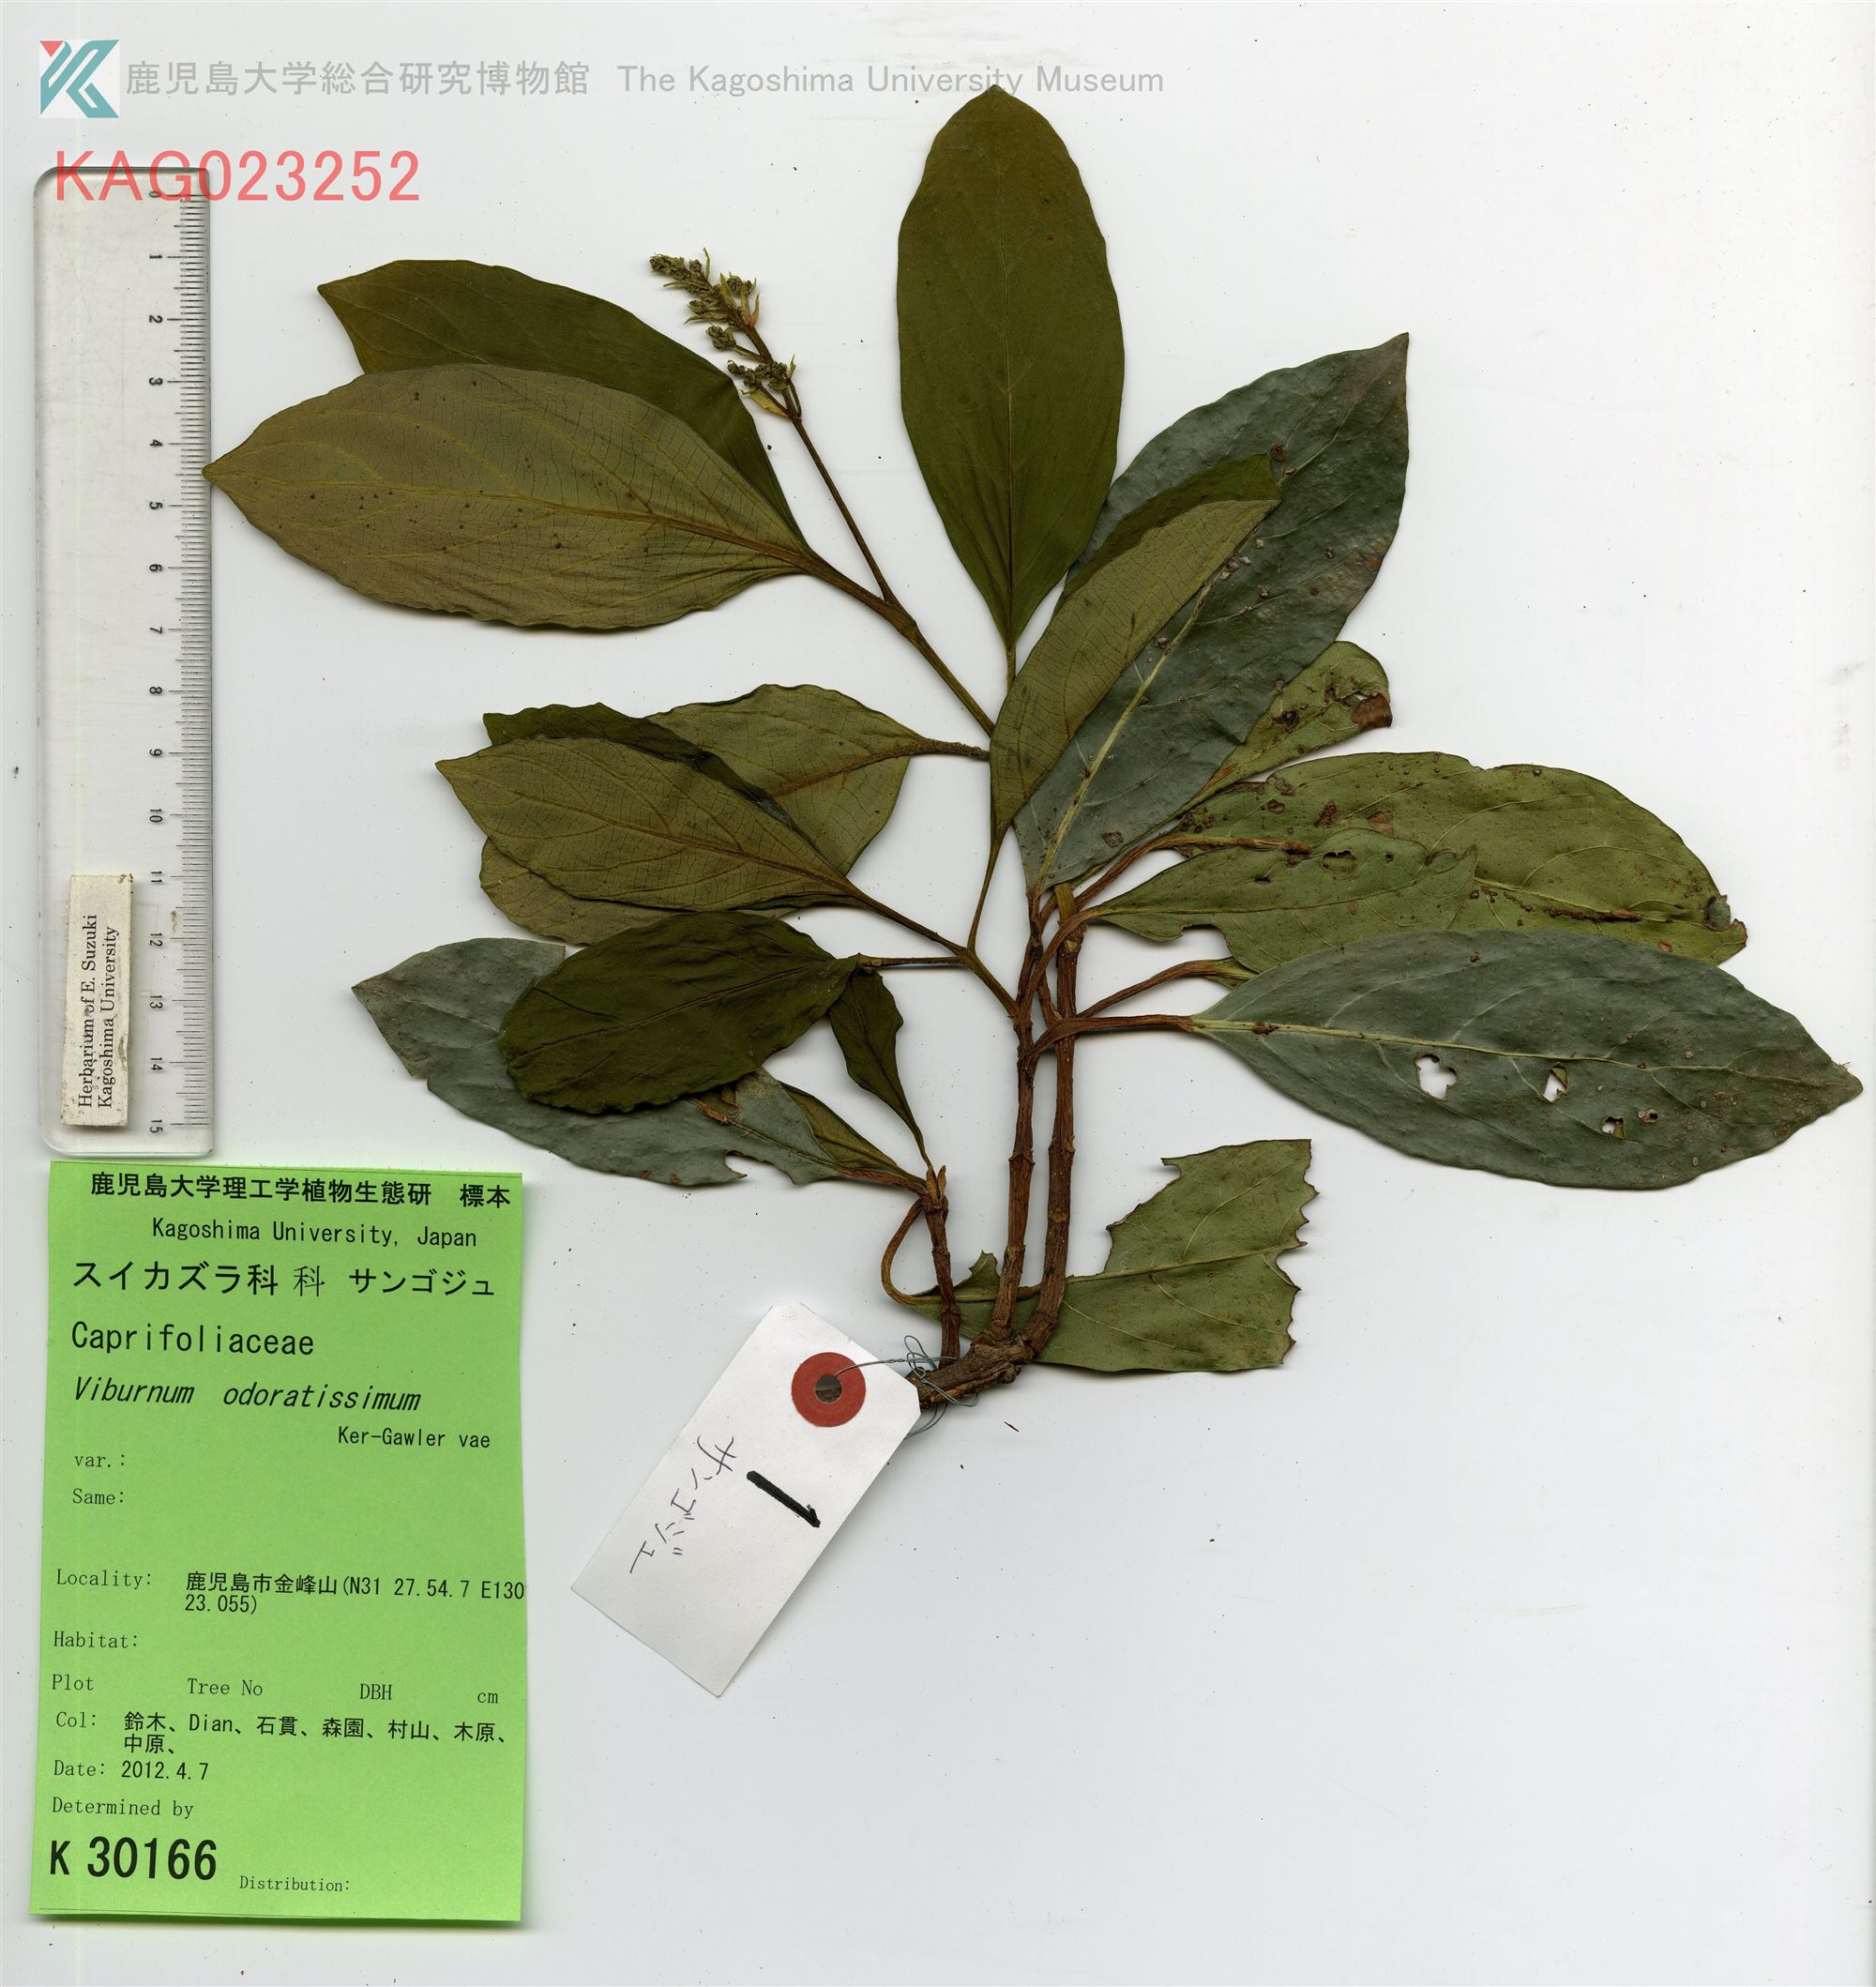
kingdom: Plantae
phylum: Tracheophyta
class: Magnoliopsida
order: Dipsacales
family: Viburnaceae
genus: Viburnum
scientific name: Viburnum odoratissimum
